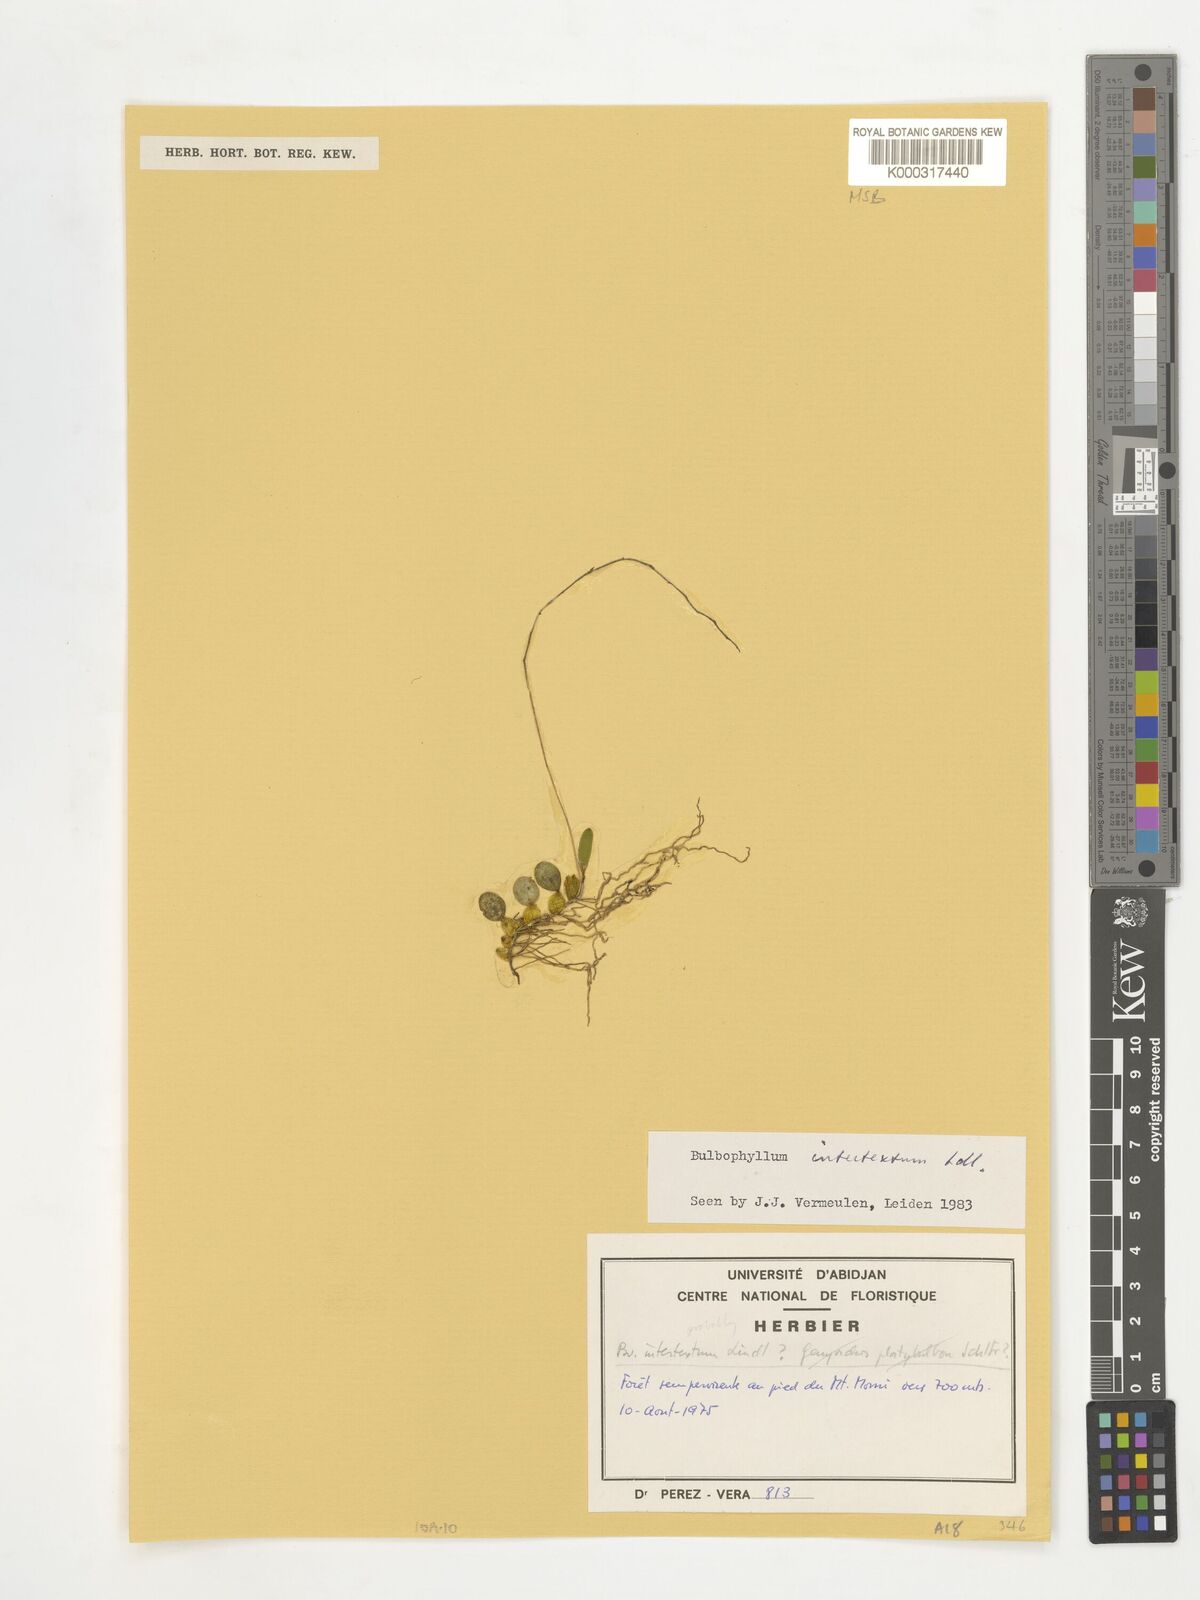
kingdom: Plantae
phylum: Tracheophyta
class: Liliopsida
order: Asparagales
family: Orchidaceae
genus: Bulbophyllum
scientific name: Bulbophyllum intertextum
